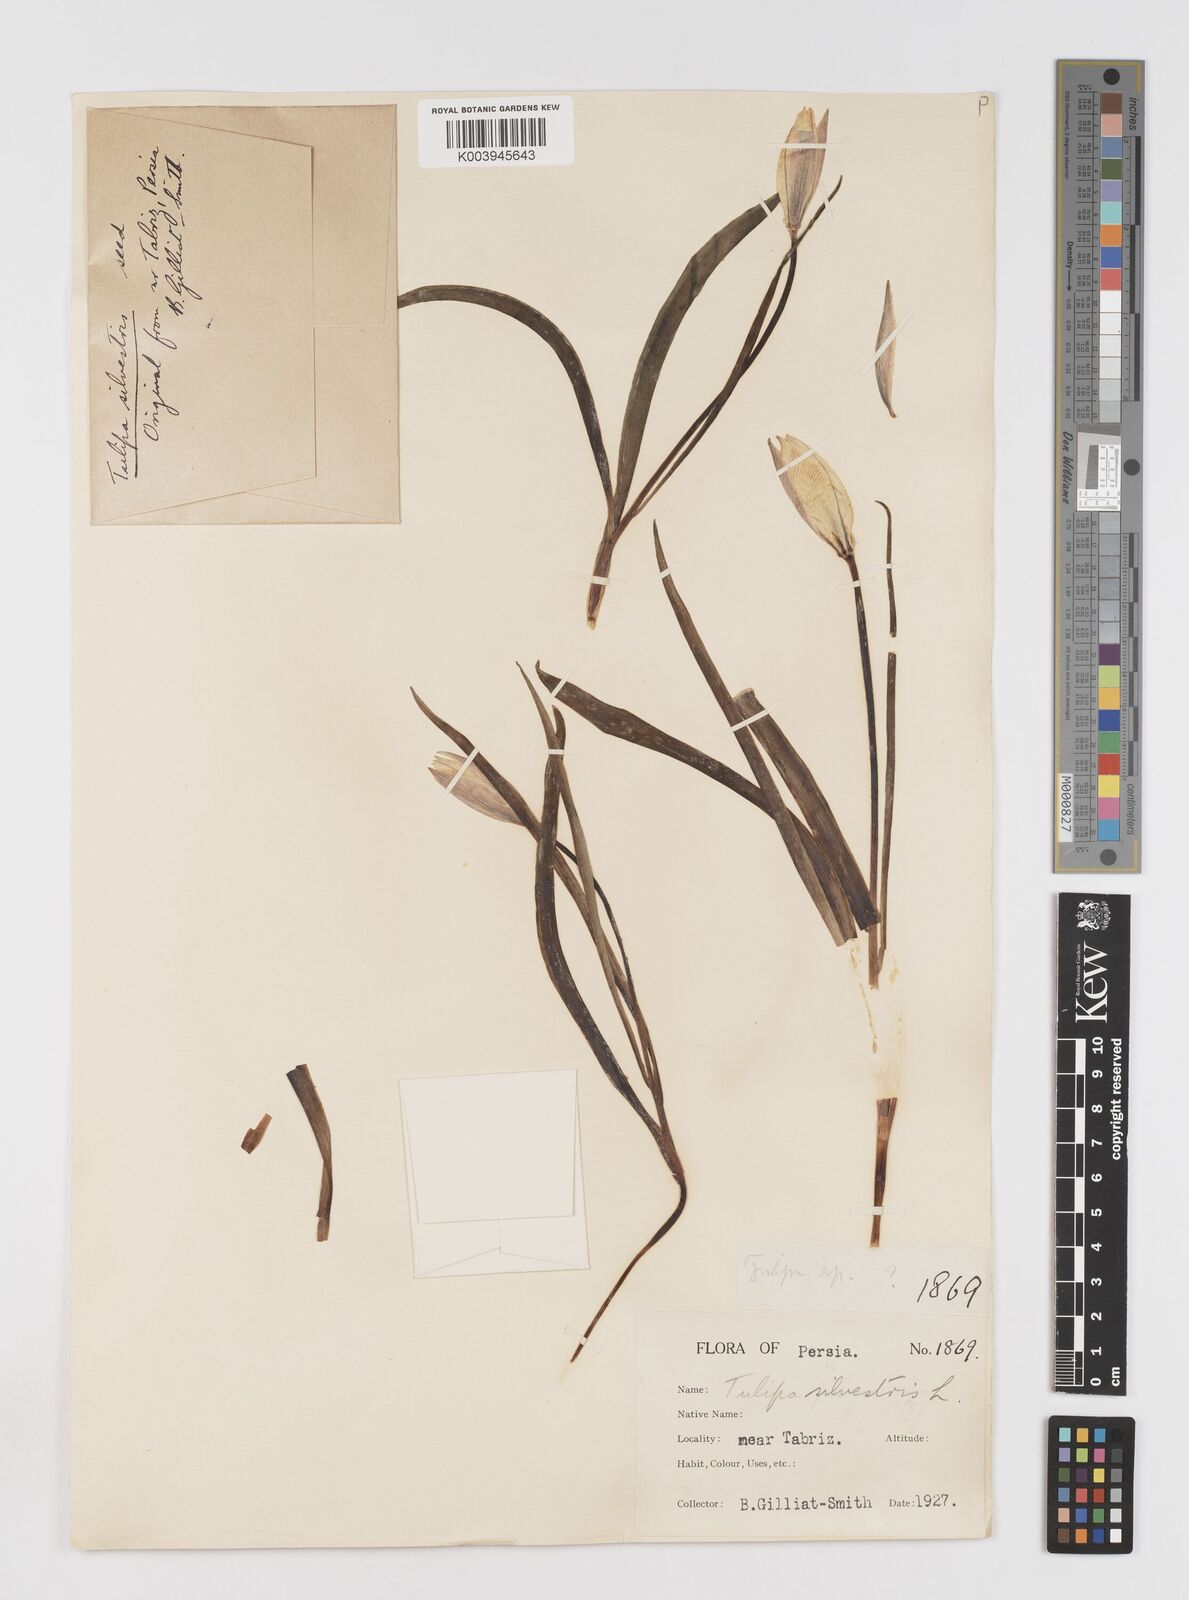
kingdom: Plantae
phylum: Tracheophyta
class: Liliopsida
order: Liliales
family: Liliaceae
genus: Tulipa
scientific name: Tulipa sylvestris
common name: Wild tulip
